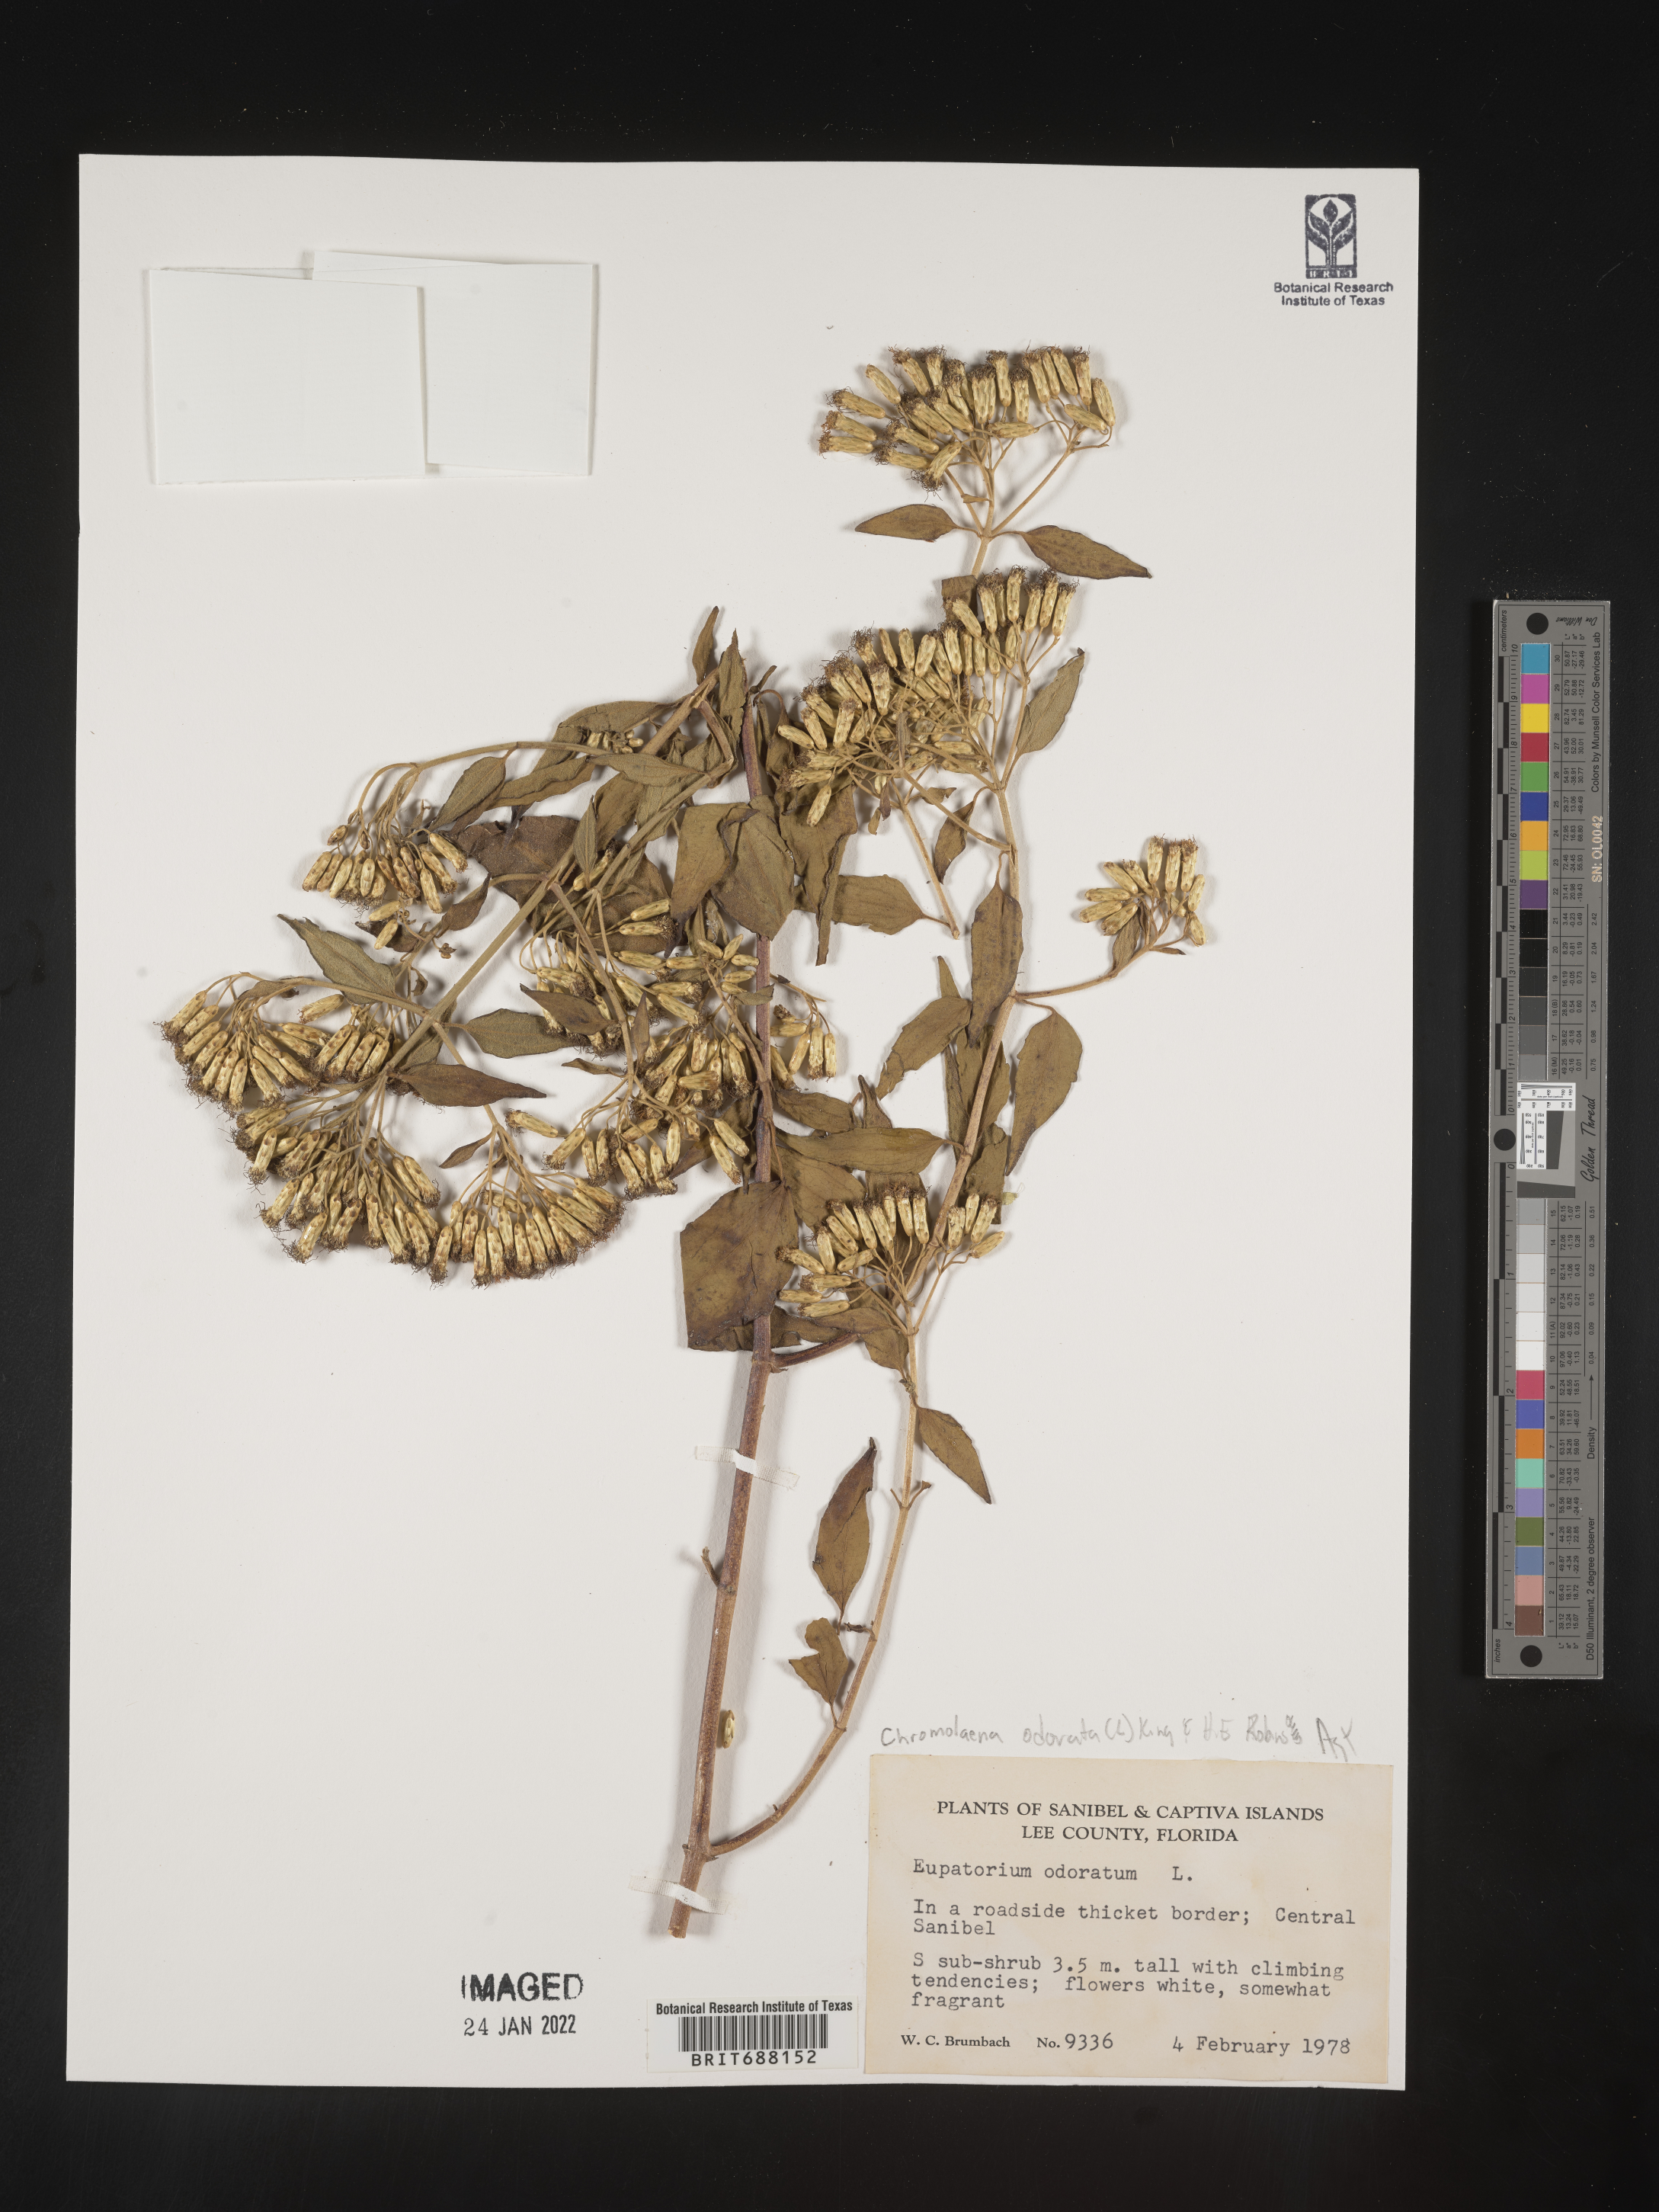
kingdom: Plantae
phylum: Tracheophyta
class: Magnoliopsida
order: Asterales
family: Asteraceae
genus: Chromolaena
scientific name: Chromolaena odorata
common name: Siamweed
